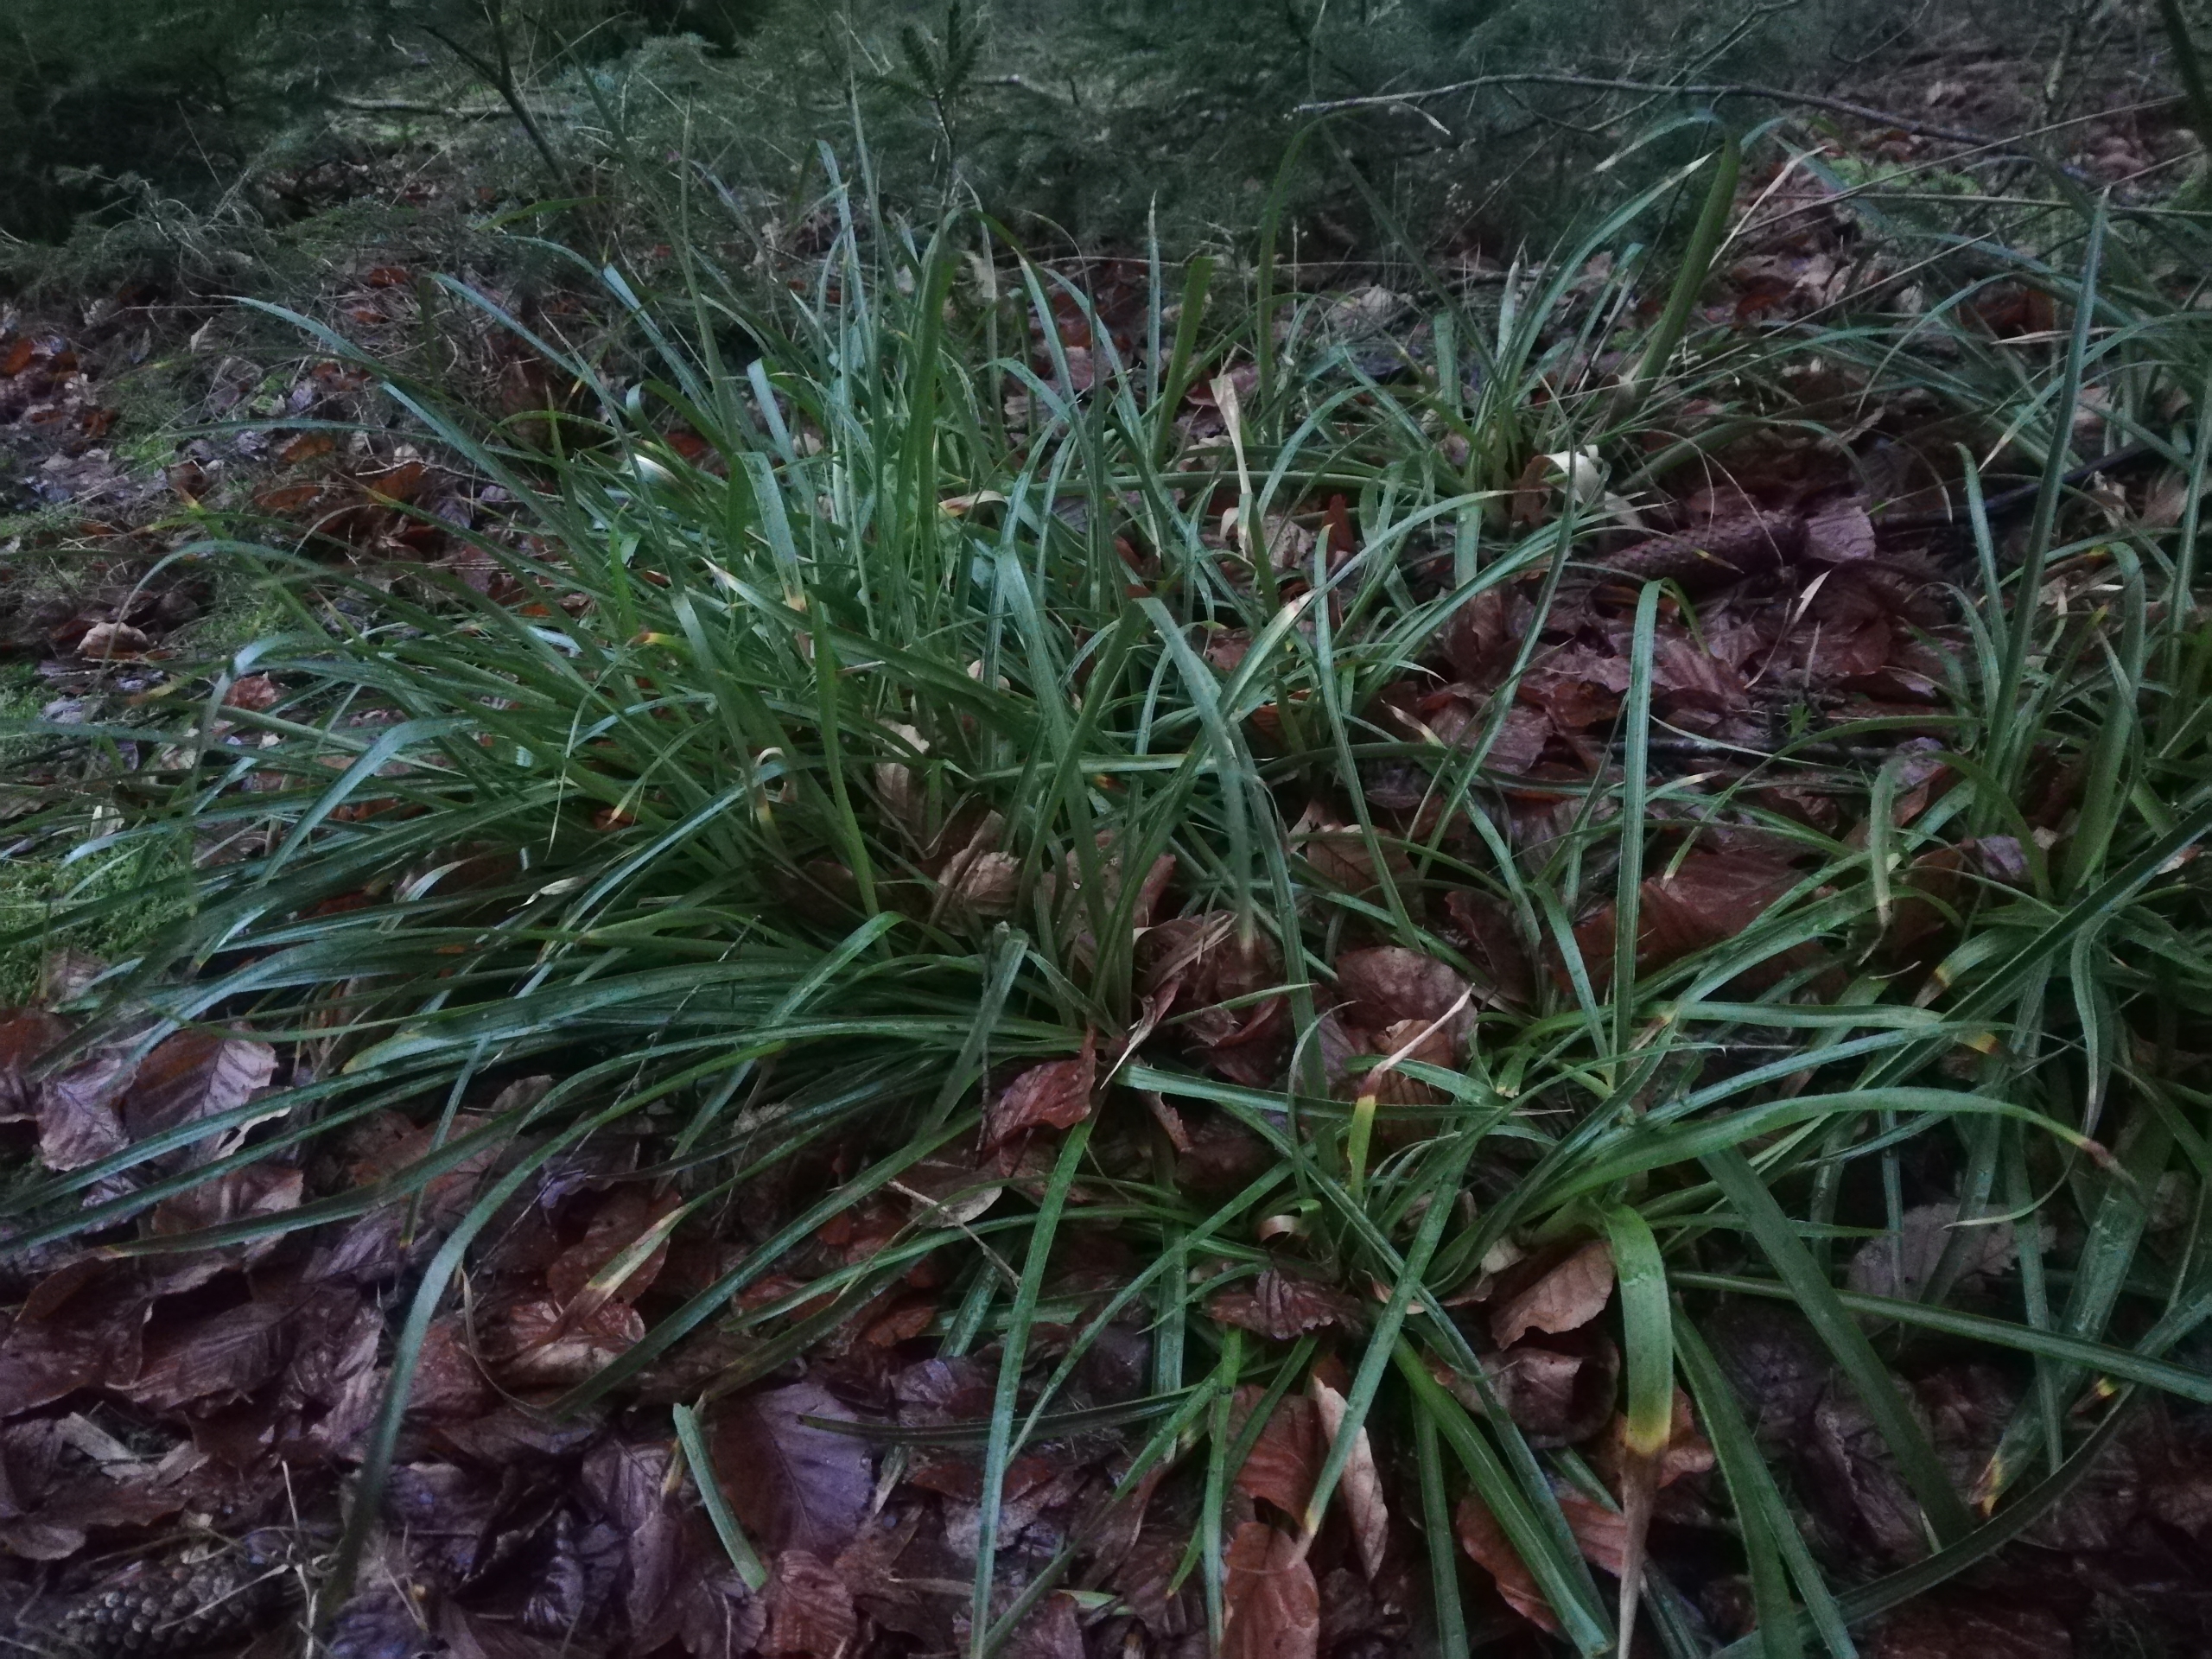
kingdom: Plantae
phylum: Tracheophyta
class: Liliopsida
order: Poales
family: Juncaceae
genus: Luzula
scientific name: Luzula sylvatica
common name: Stor frytle
